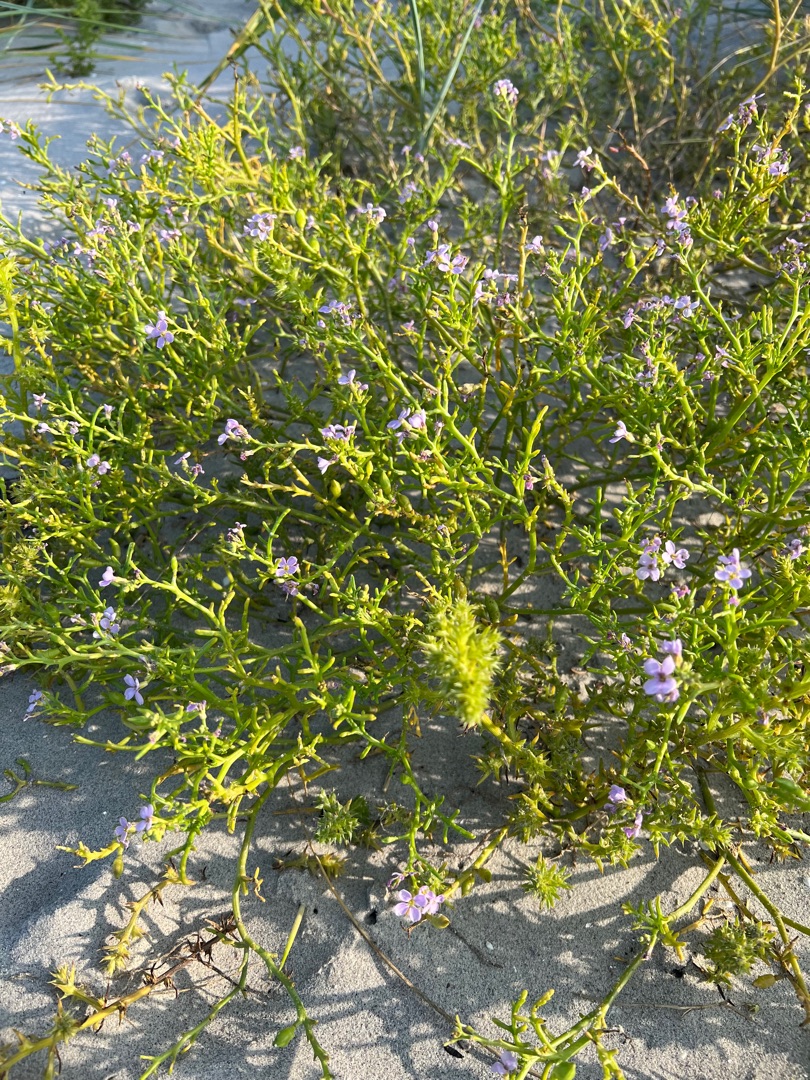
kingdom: Plantae
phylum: Tracheophyta
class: Magnoliopsida
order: Brassicales
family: Brassicaceae
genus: Cakile
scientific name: Cakile maritima
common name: Strandsennep
